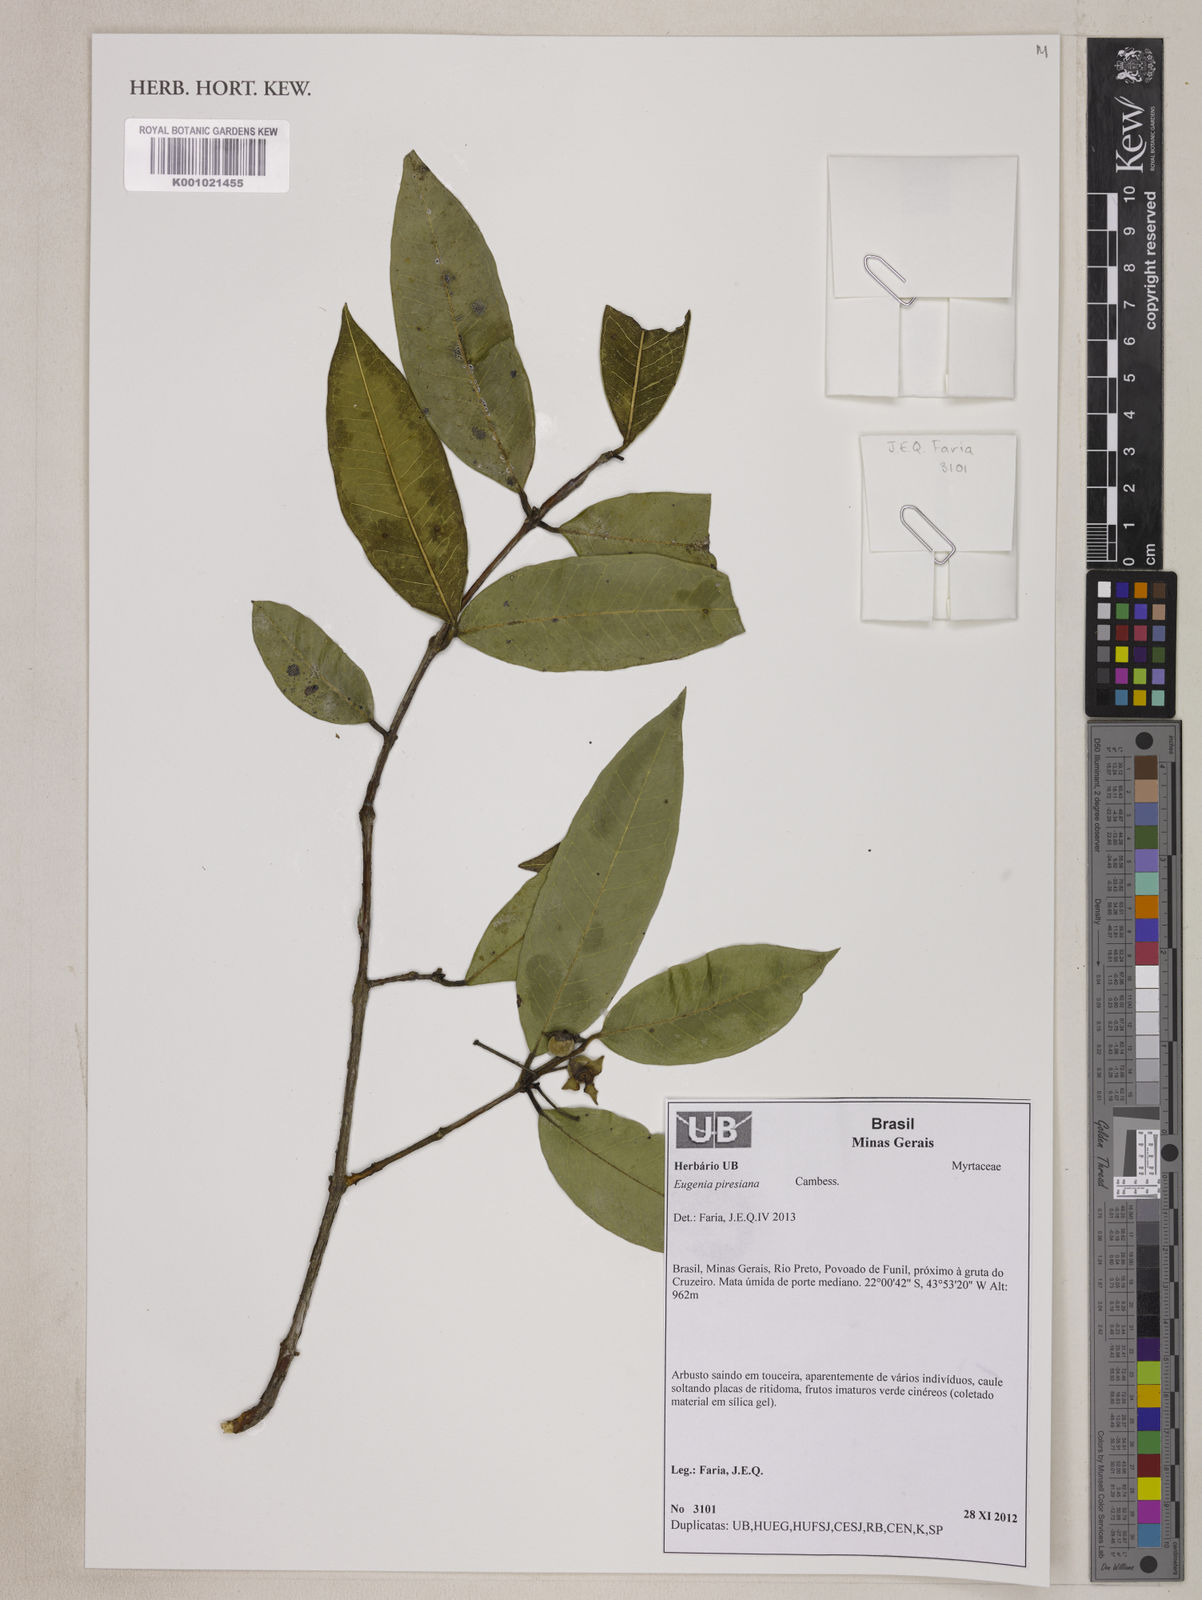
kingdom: Plantae
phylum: Tracheophyta
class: Magnoliopsida
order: Myrtales
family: Myrtaceae
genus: Eugenia
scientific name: Eugenia piresiana
